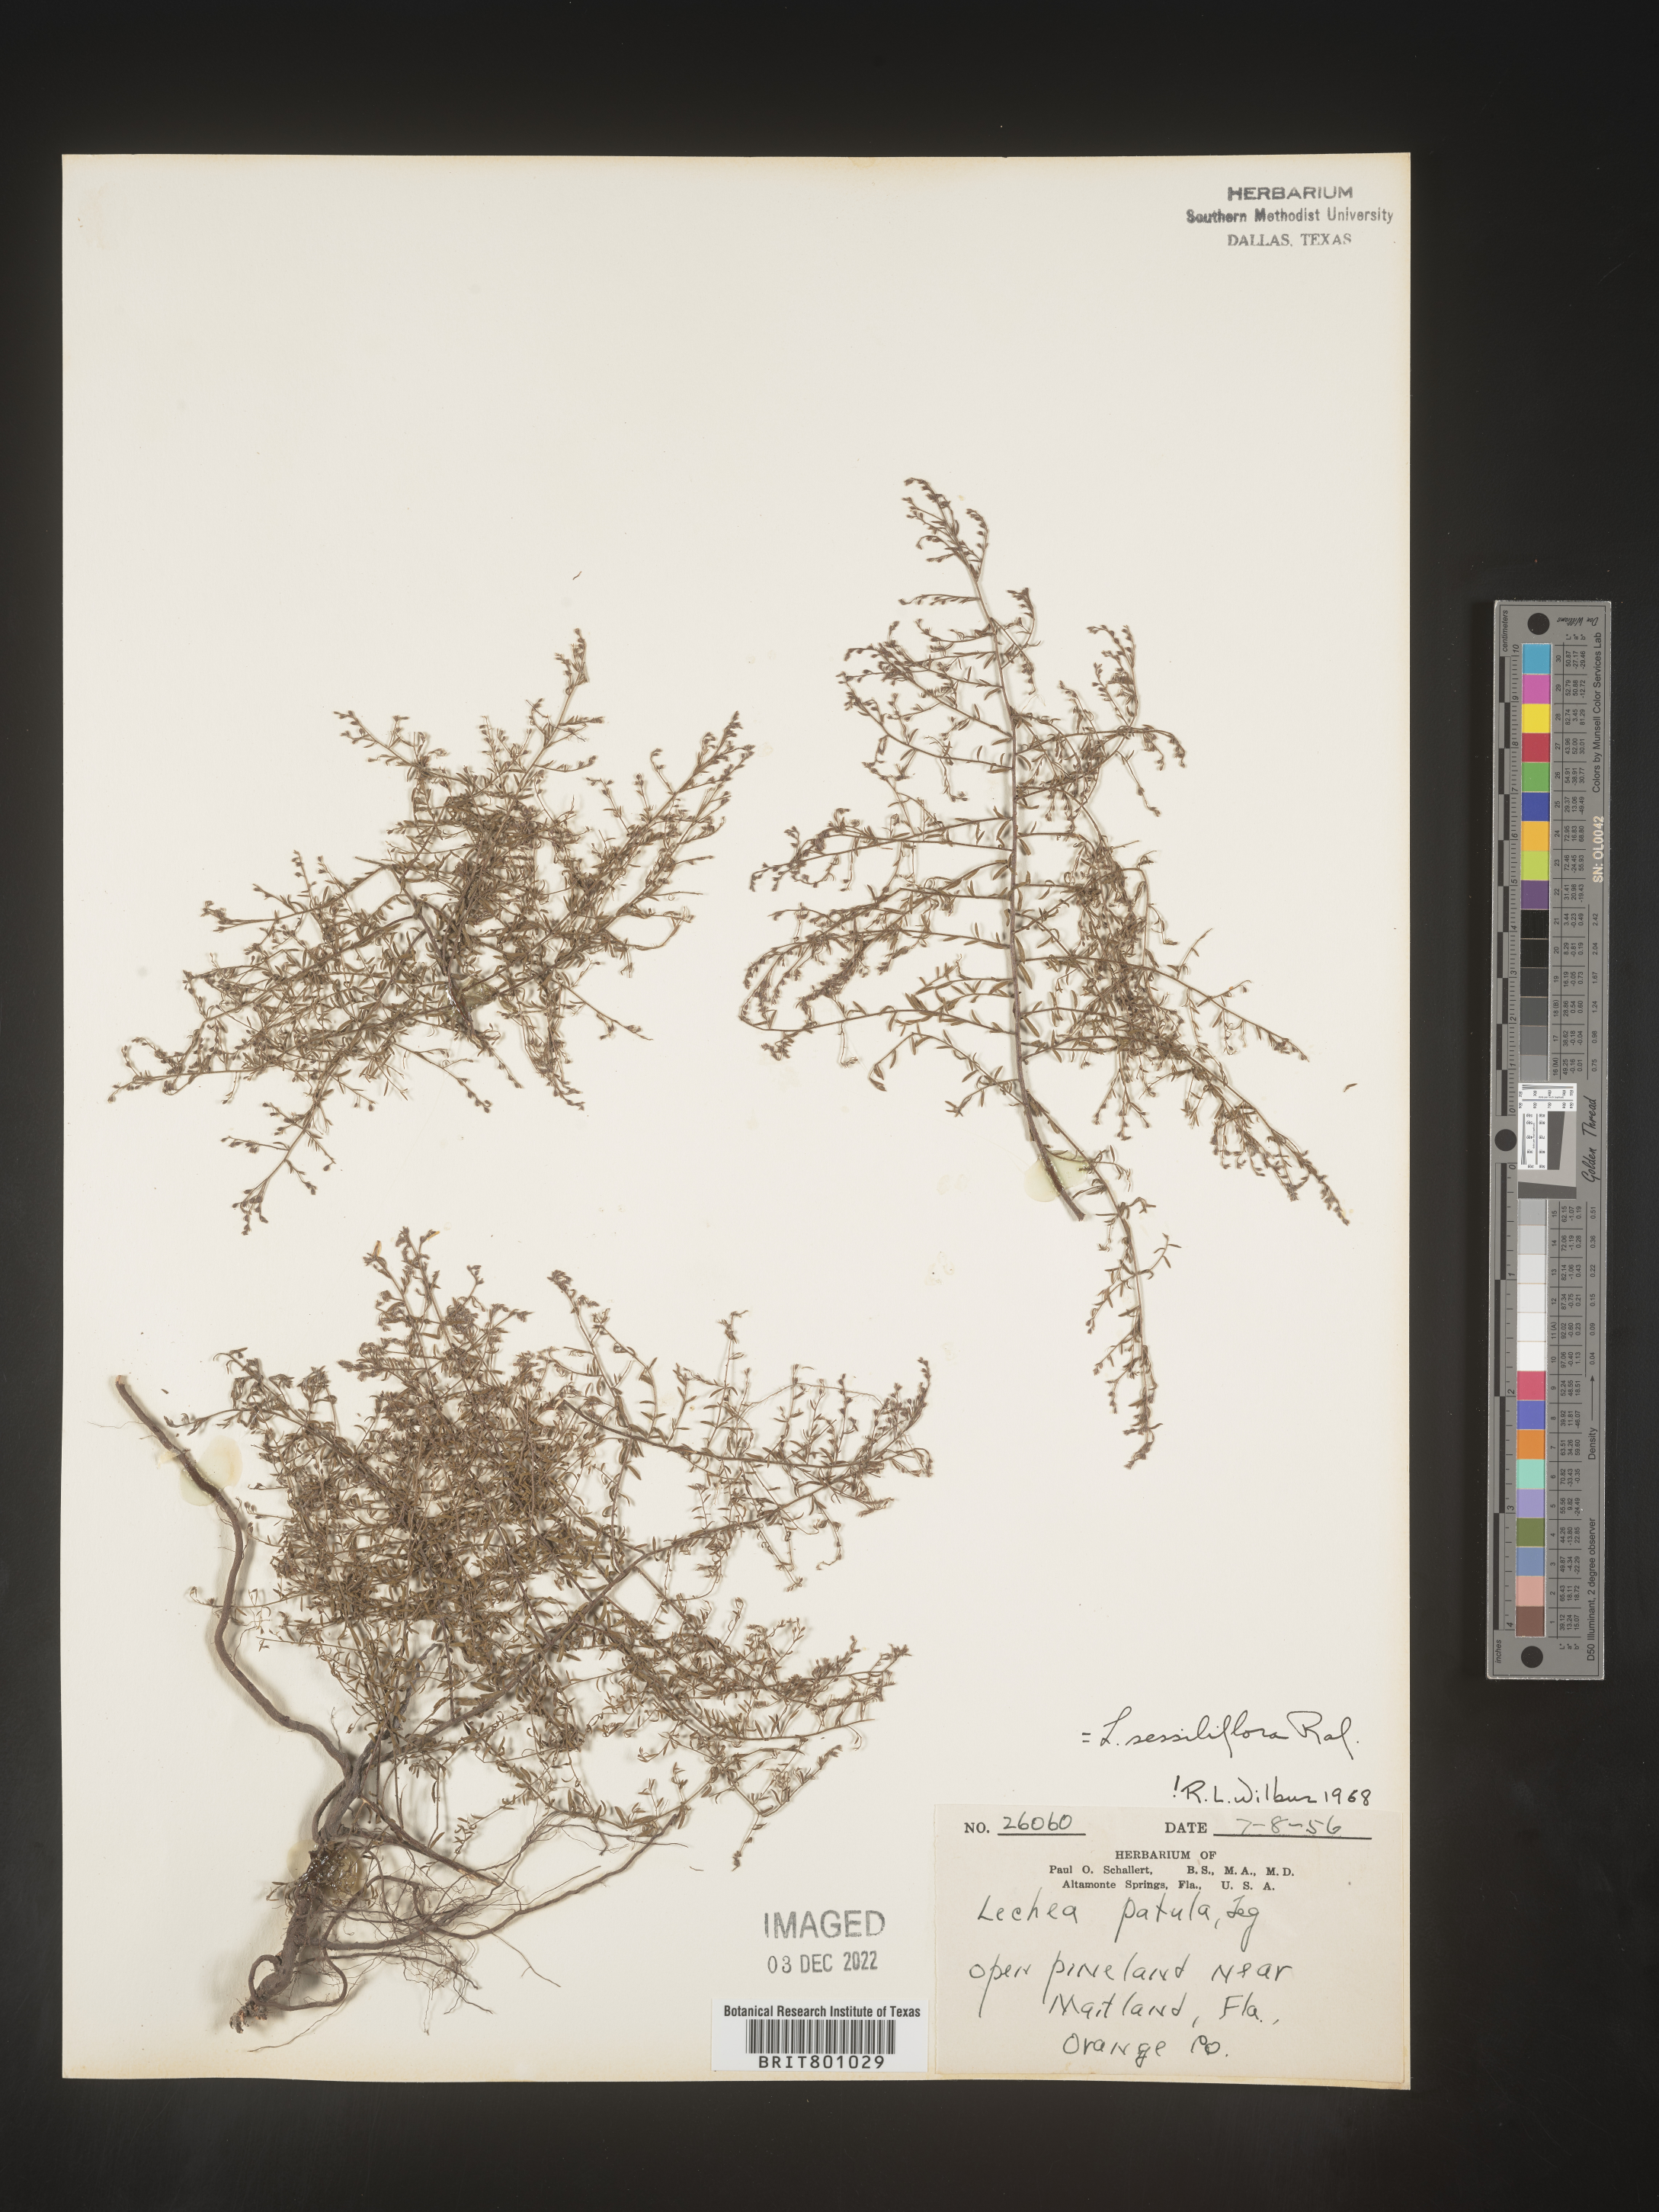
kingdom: Plantae
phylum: Tracheophyta
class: Magnoliopsida
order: Malvales
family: Cistaceae
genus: Lechea
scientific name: Lechea
